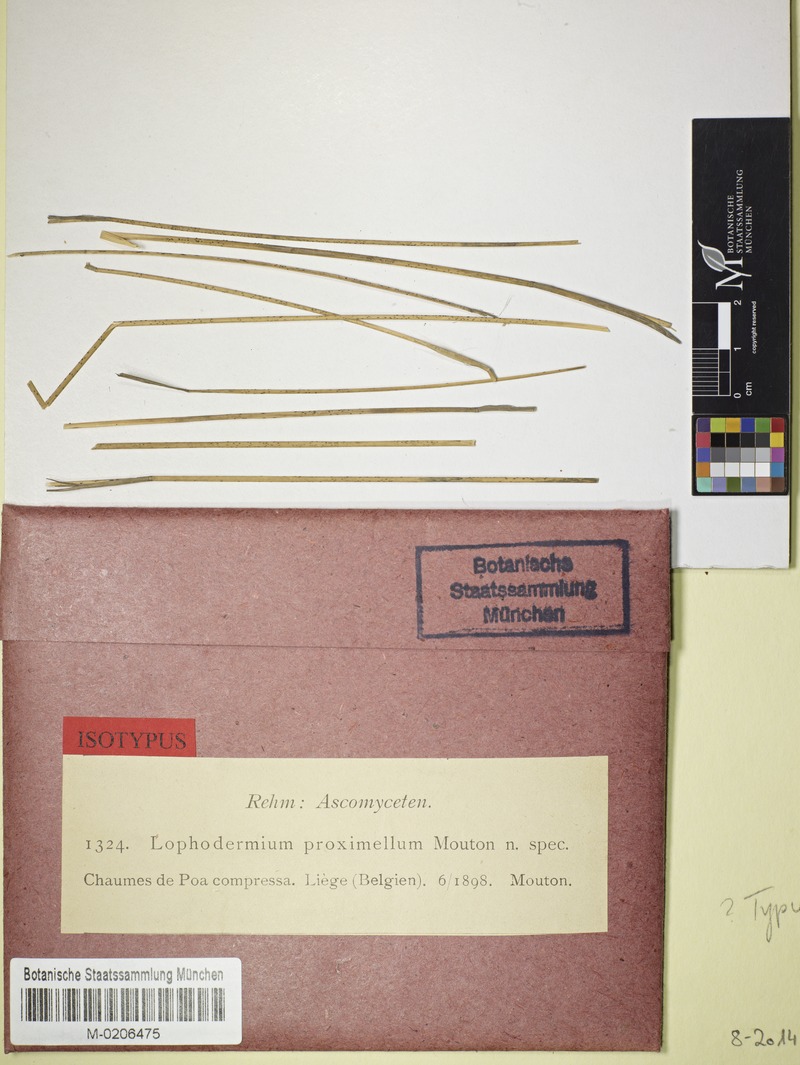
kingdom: Fungi
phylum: Ascomycota
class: Leotiomycetes
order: Rhytismatales
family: Rhytismataceae
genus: Lophodermium
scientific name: Lophodermium
